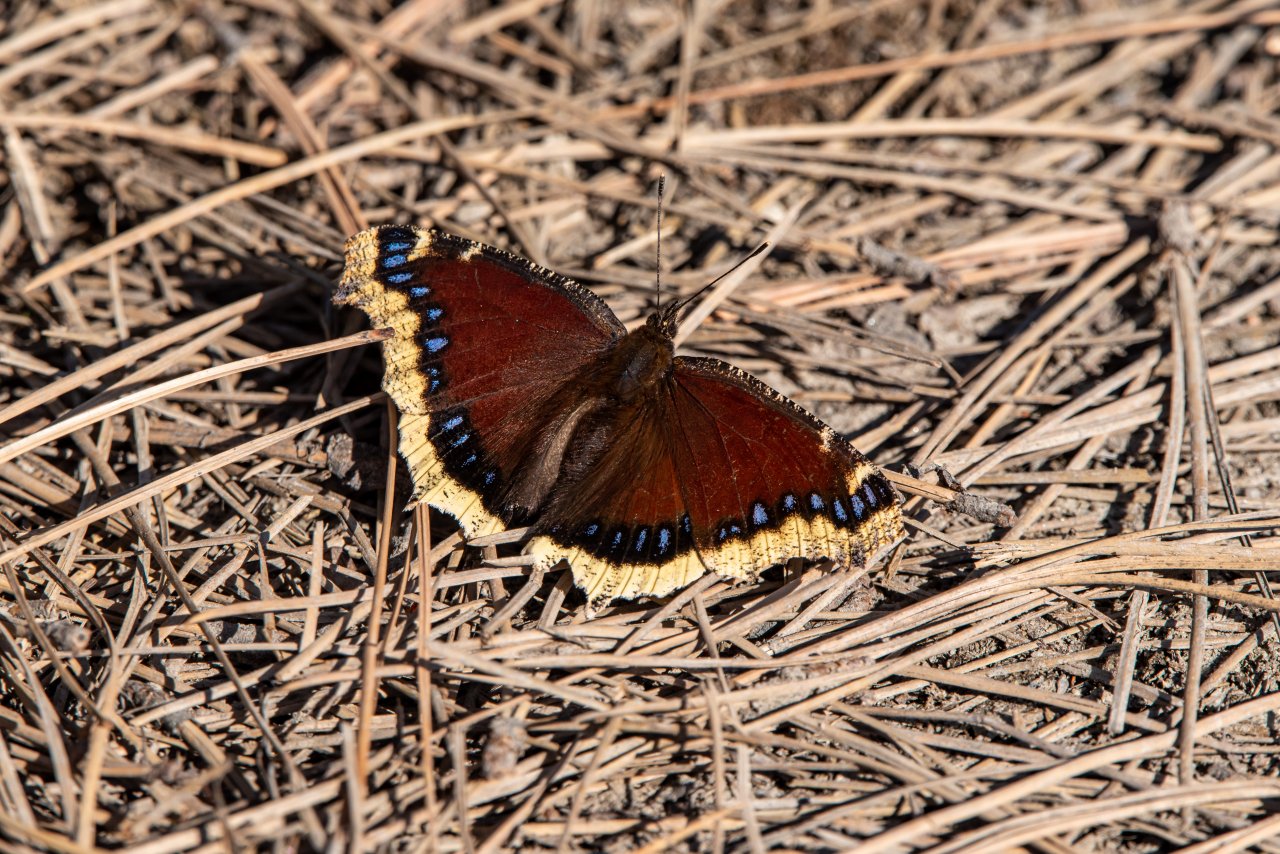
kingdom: Animalia
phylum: Arthropoda
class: Insecta
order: Lepidoptera
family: Nymphalidae
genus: Nymphalis
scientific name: Nymphalis antiopa
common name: Mourning Cloak
